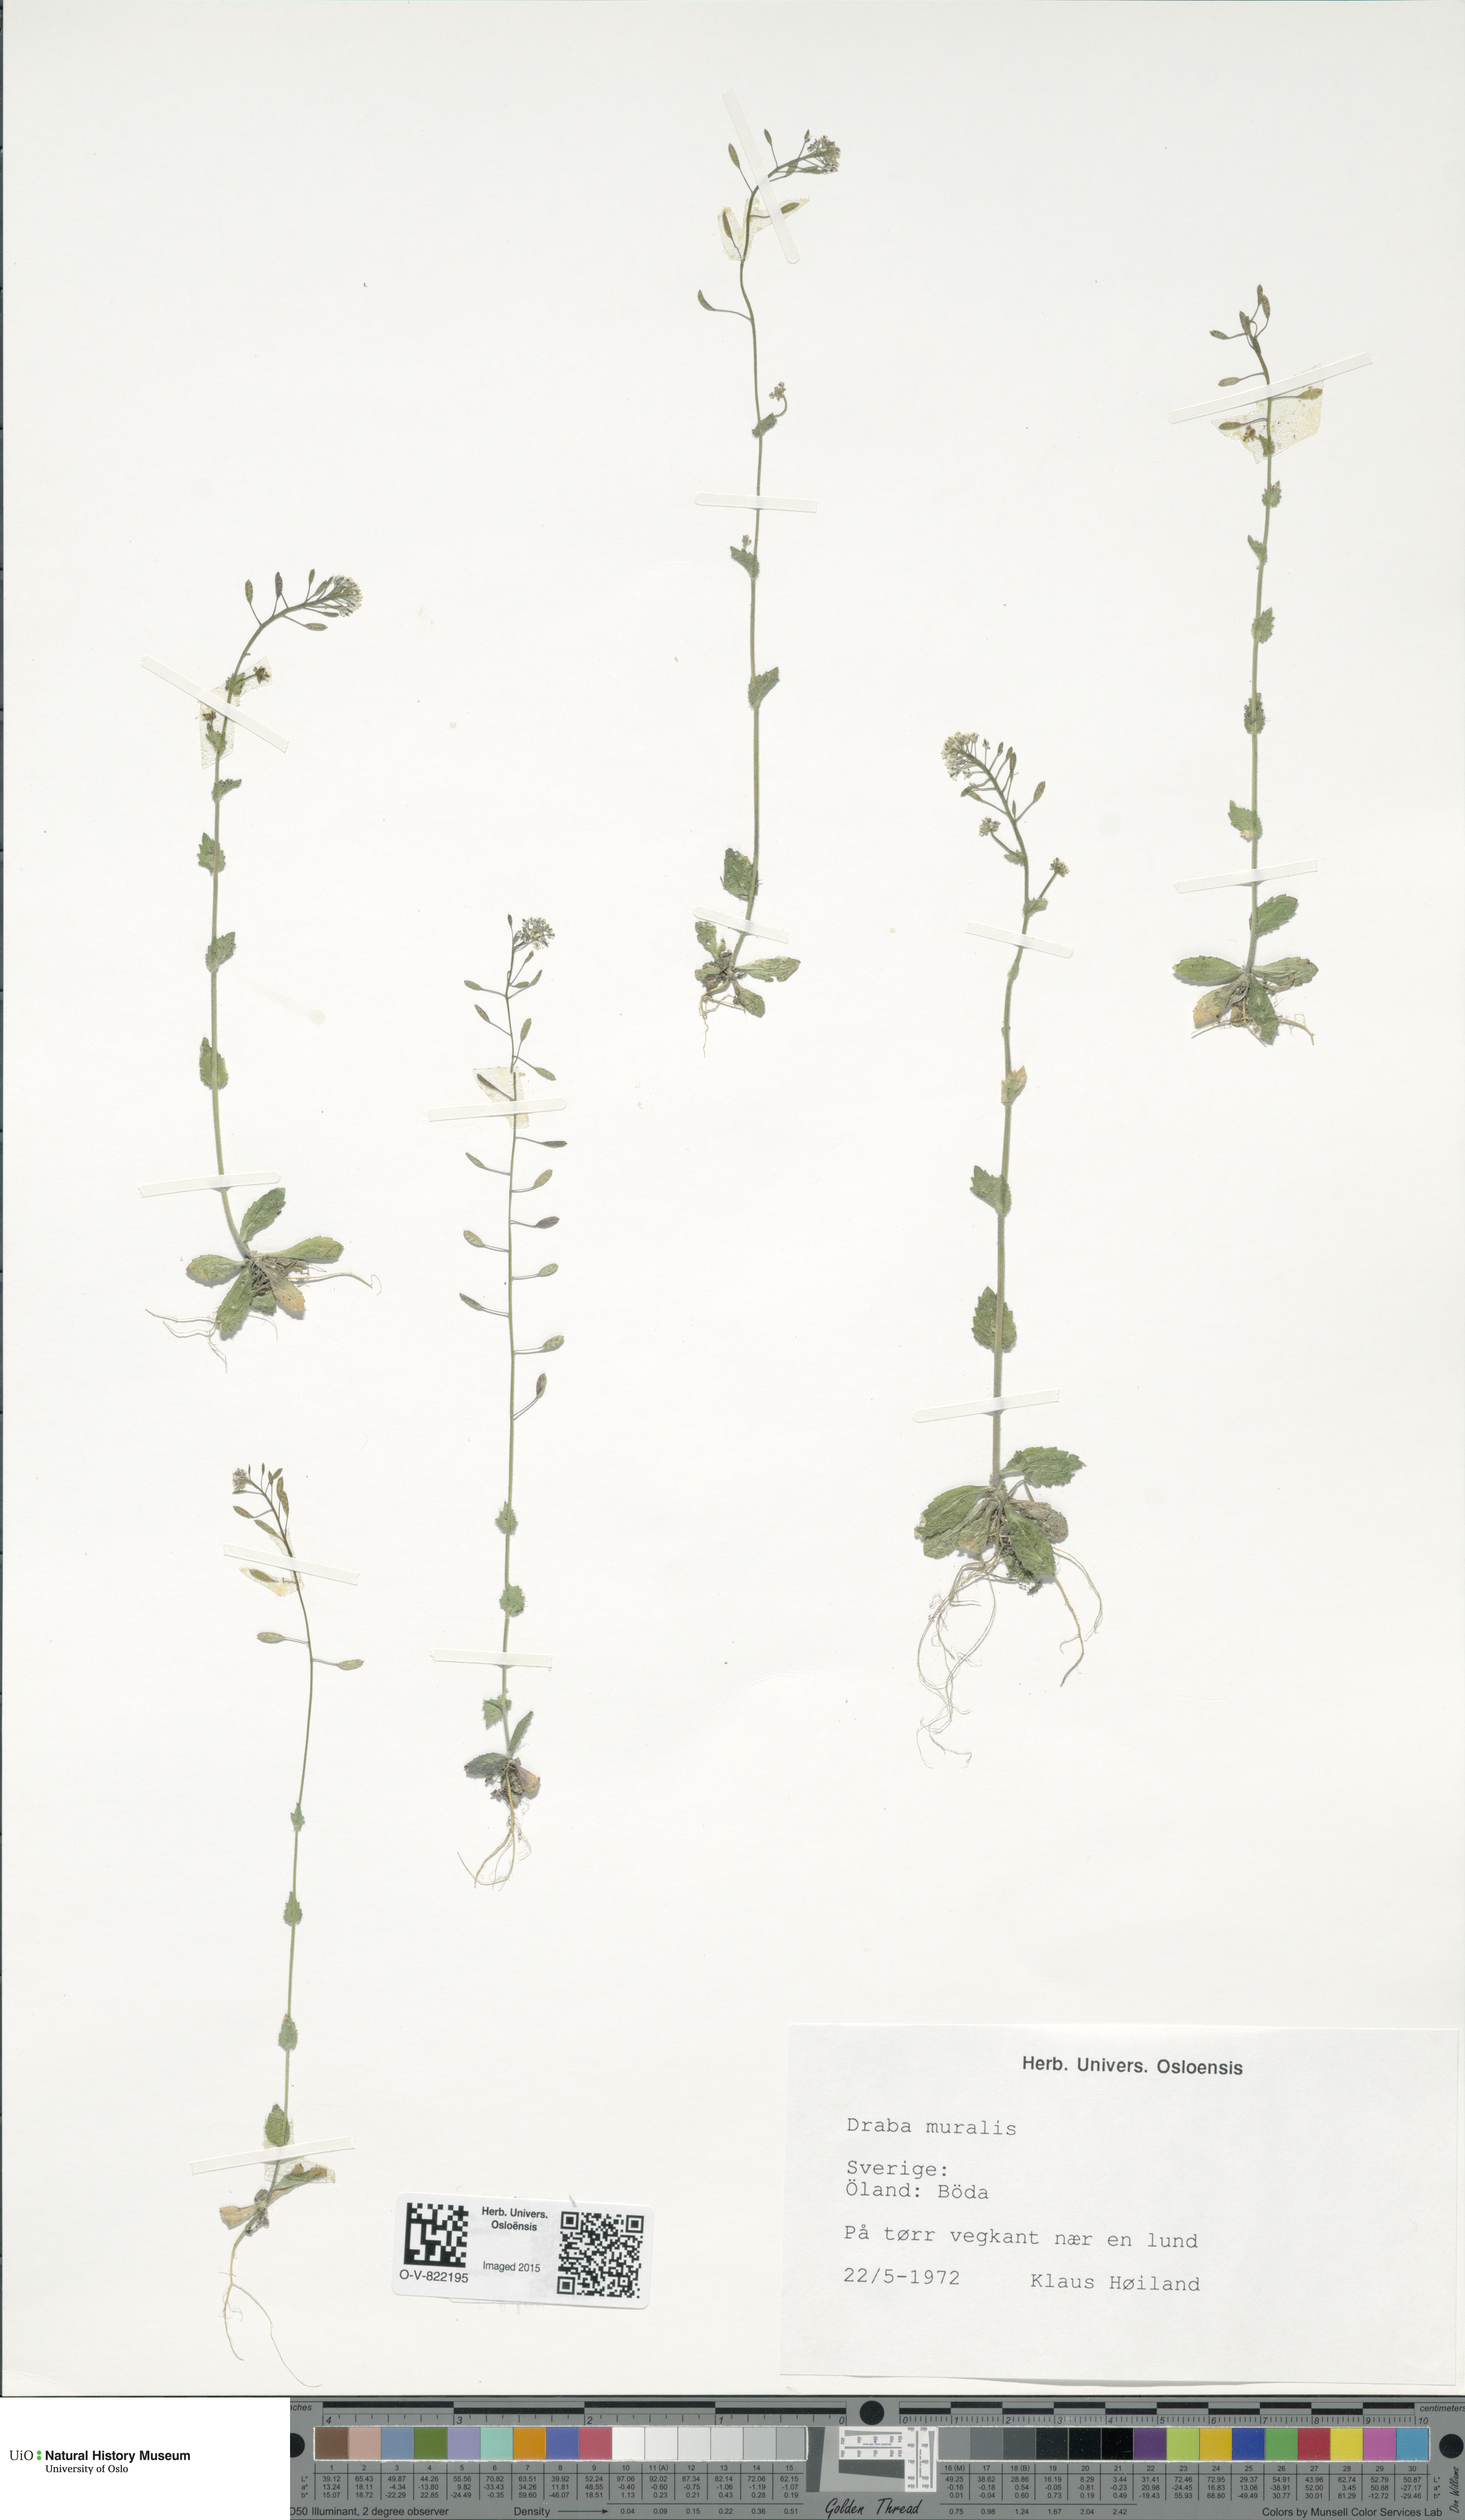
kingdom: Plantae
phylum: Tracheophyta
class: Magnoliopsida
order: Brassicales
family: Brassicaceae
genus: Drabella
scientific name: Drabella muralis
